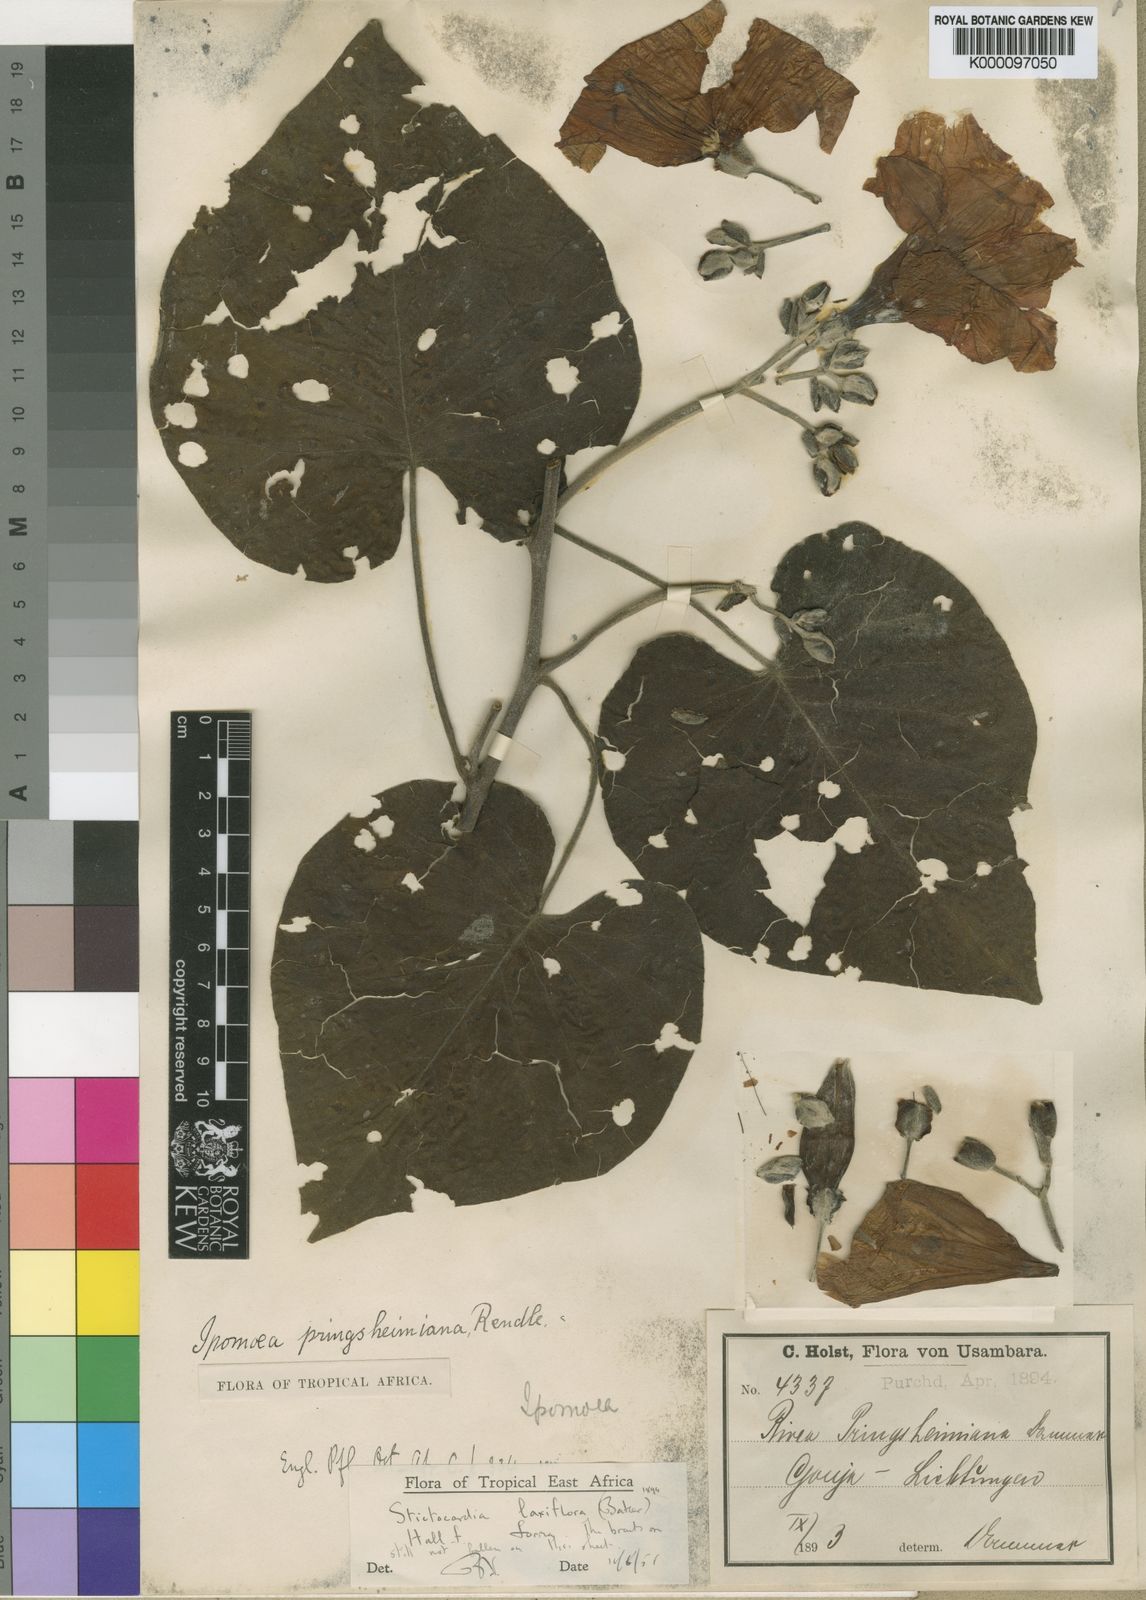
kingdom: Plantae
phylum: Tracheophyta
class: Magnoliopsida
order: Solanales
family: Convolvulaceae
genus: Stictocardia
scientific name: Stictocardia laxiflora
